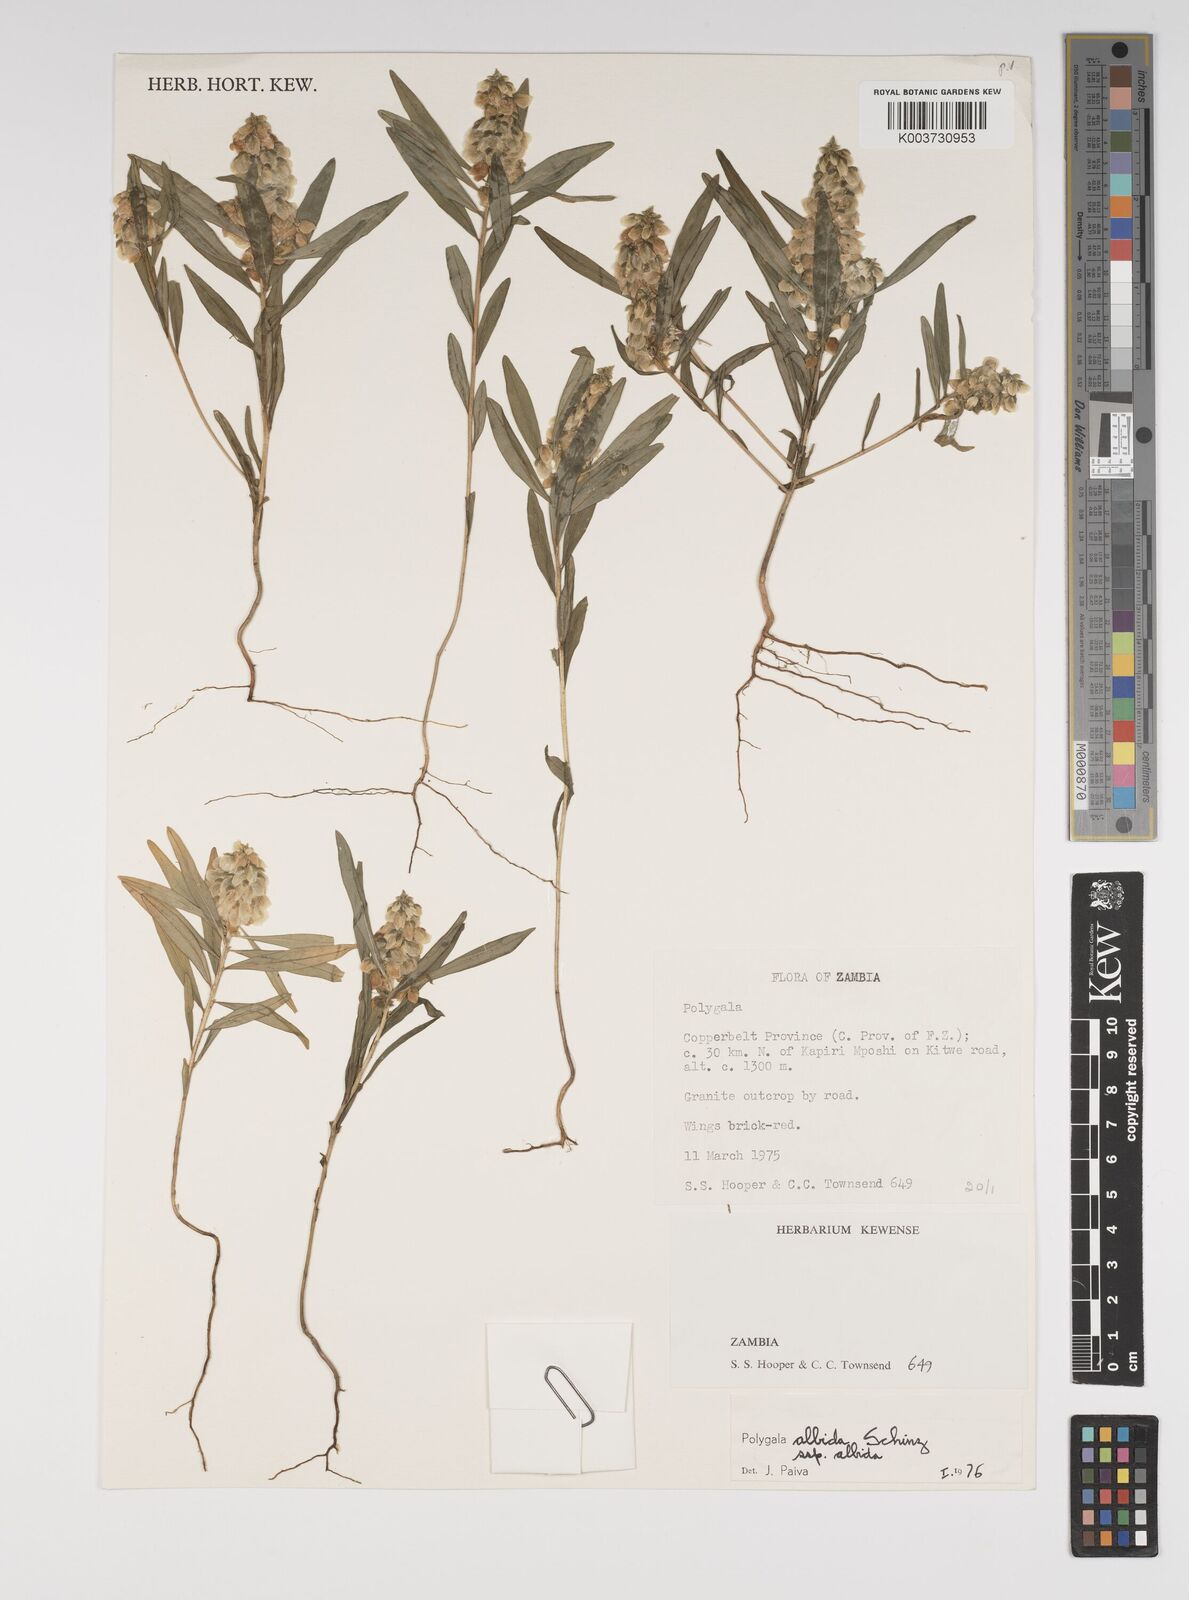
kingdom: Plantae
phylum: Tracheophyta
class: Magnoliopsida
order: Fabales
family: Polygalaceae
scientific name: Polygalaceae
